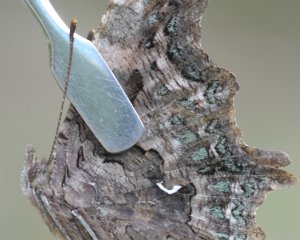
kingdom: Animalia
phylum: Arthropoda
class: Insecta
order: Lepidoptera
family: Nymphalidae
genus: Polygonia
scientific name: Polygonia faunus
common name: Green Comma
